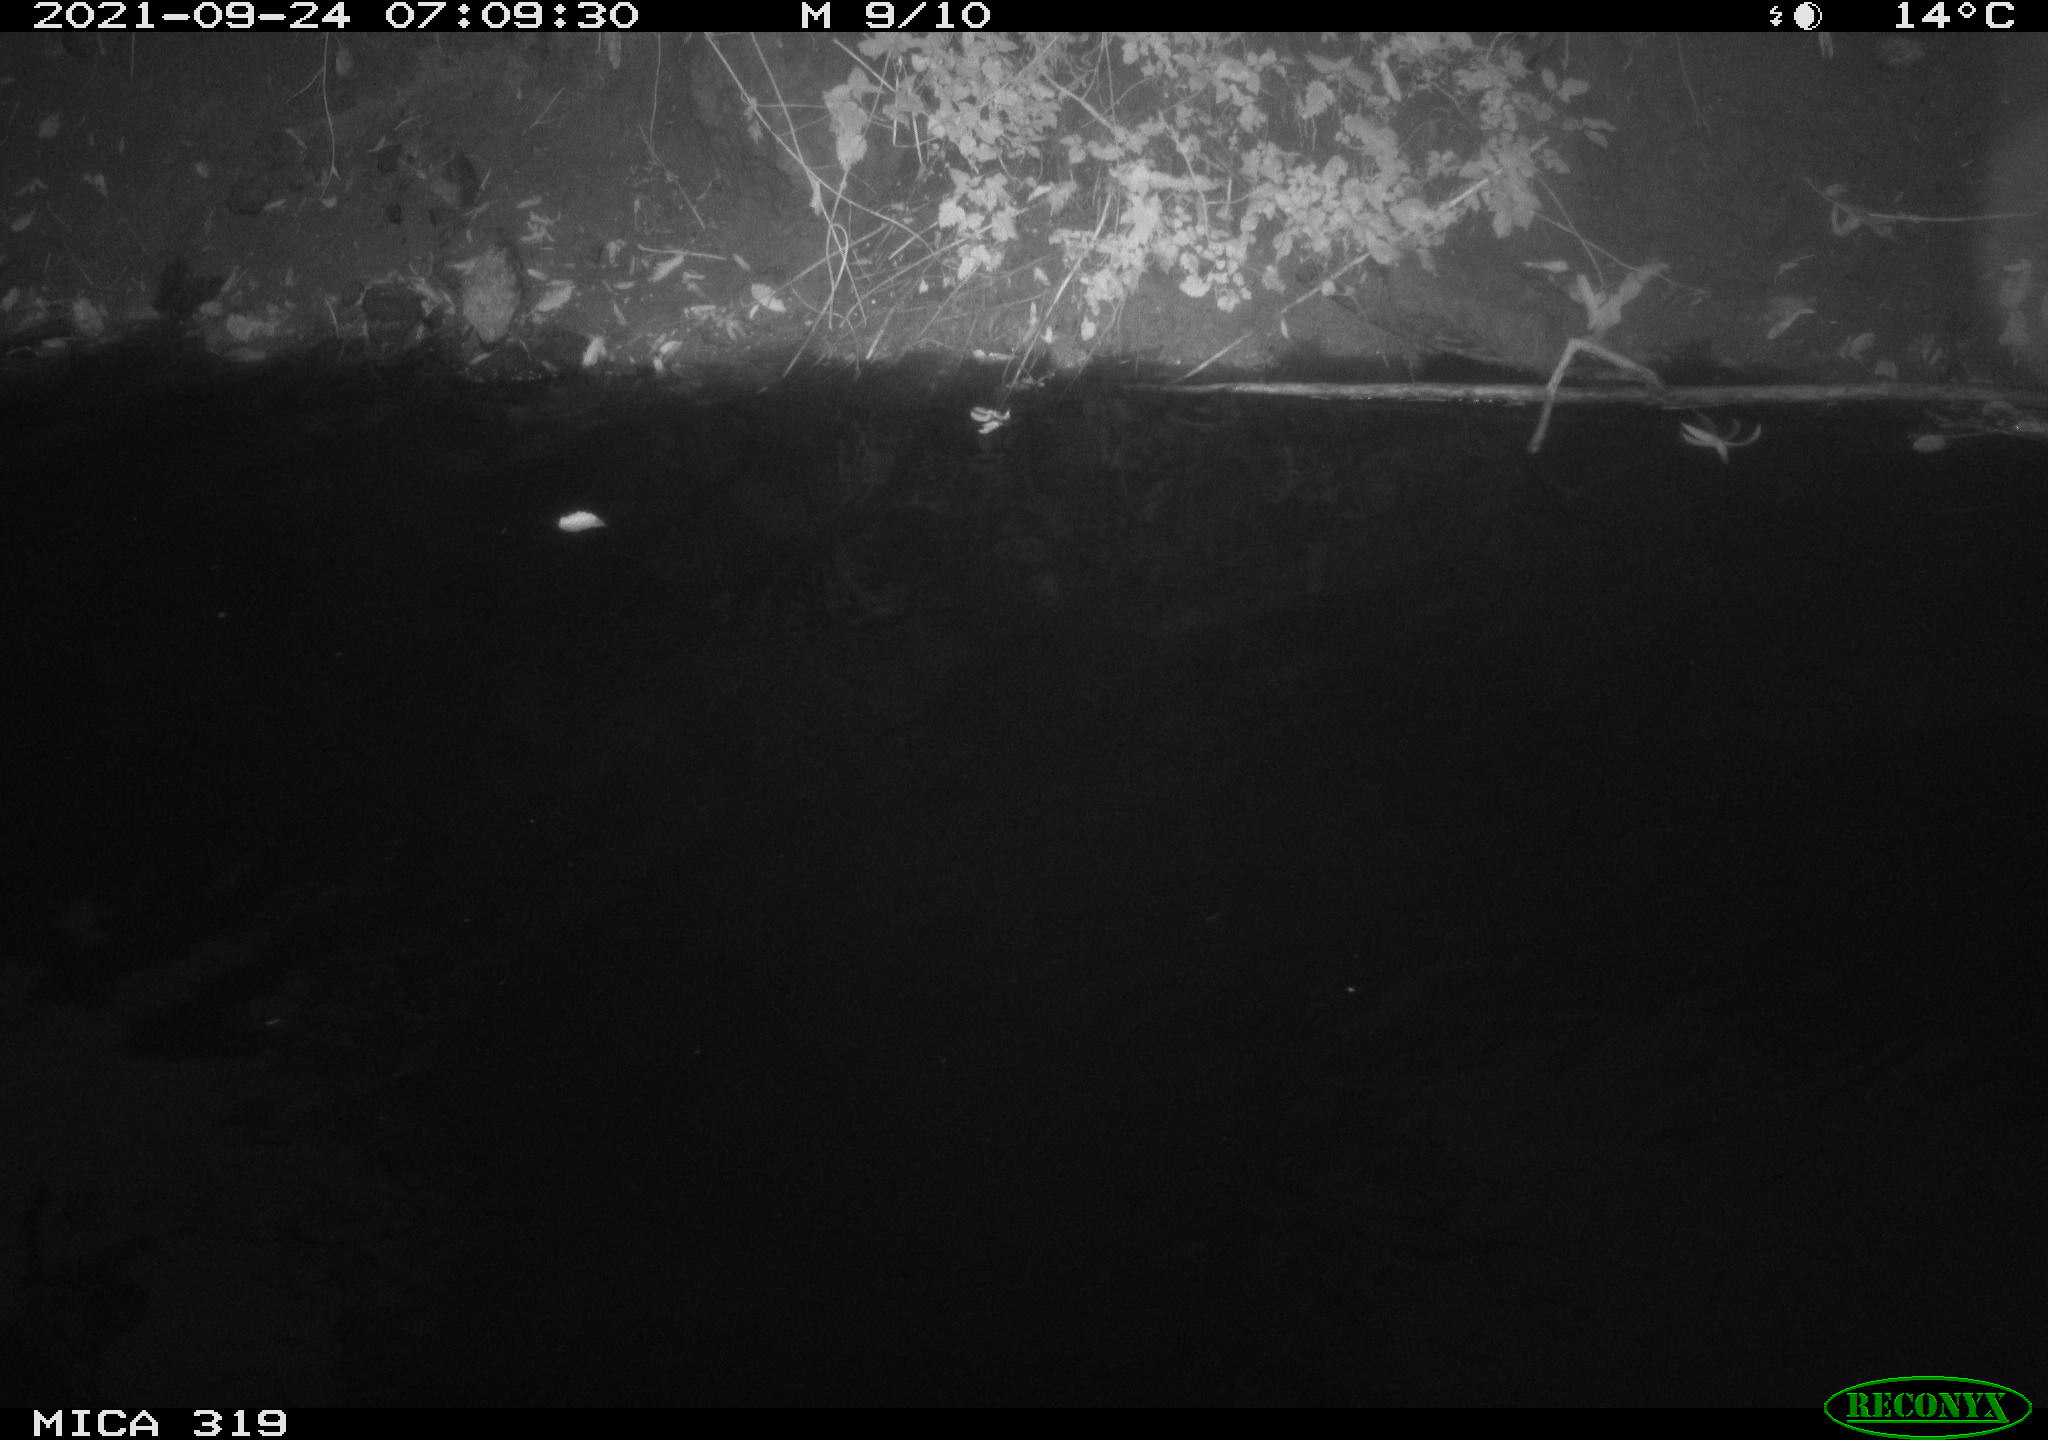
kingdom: Animalia
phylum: Chordata
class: Aves
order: Anseriformes
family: Anatidae
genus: Anas
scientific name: Anas platyrhynchos
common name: Mallard
